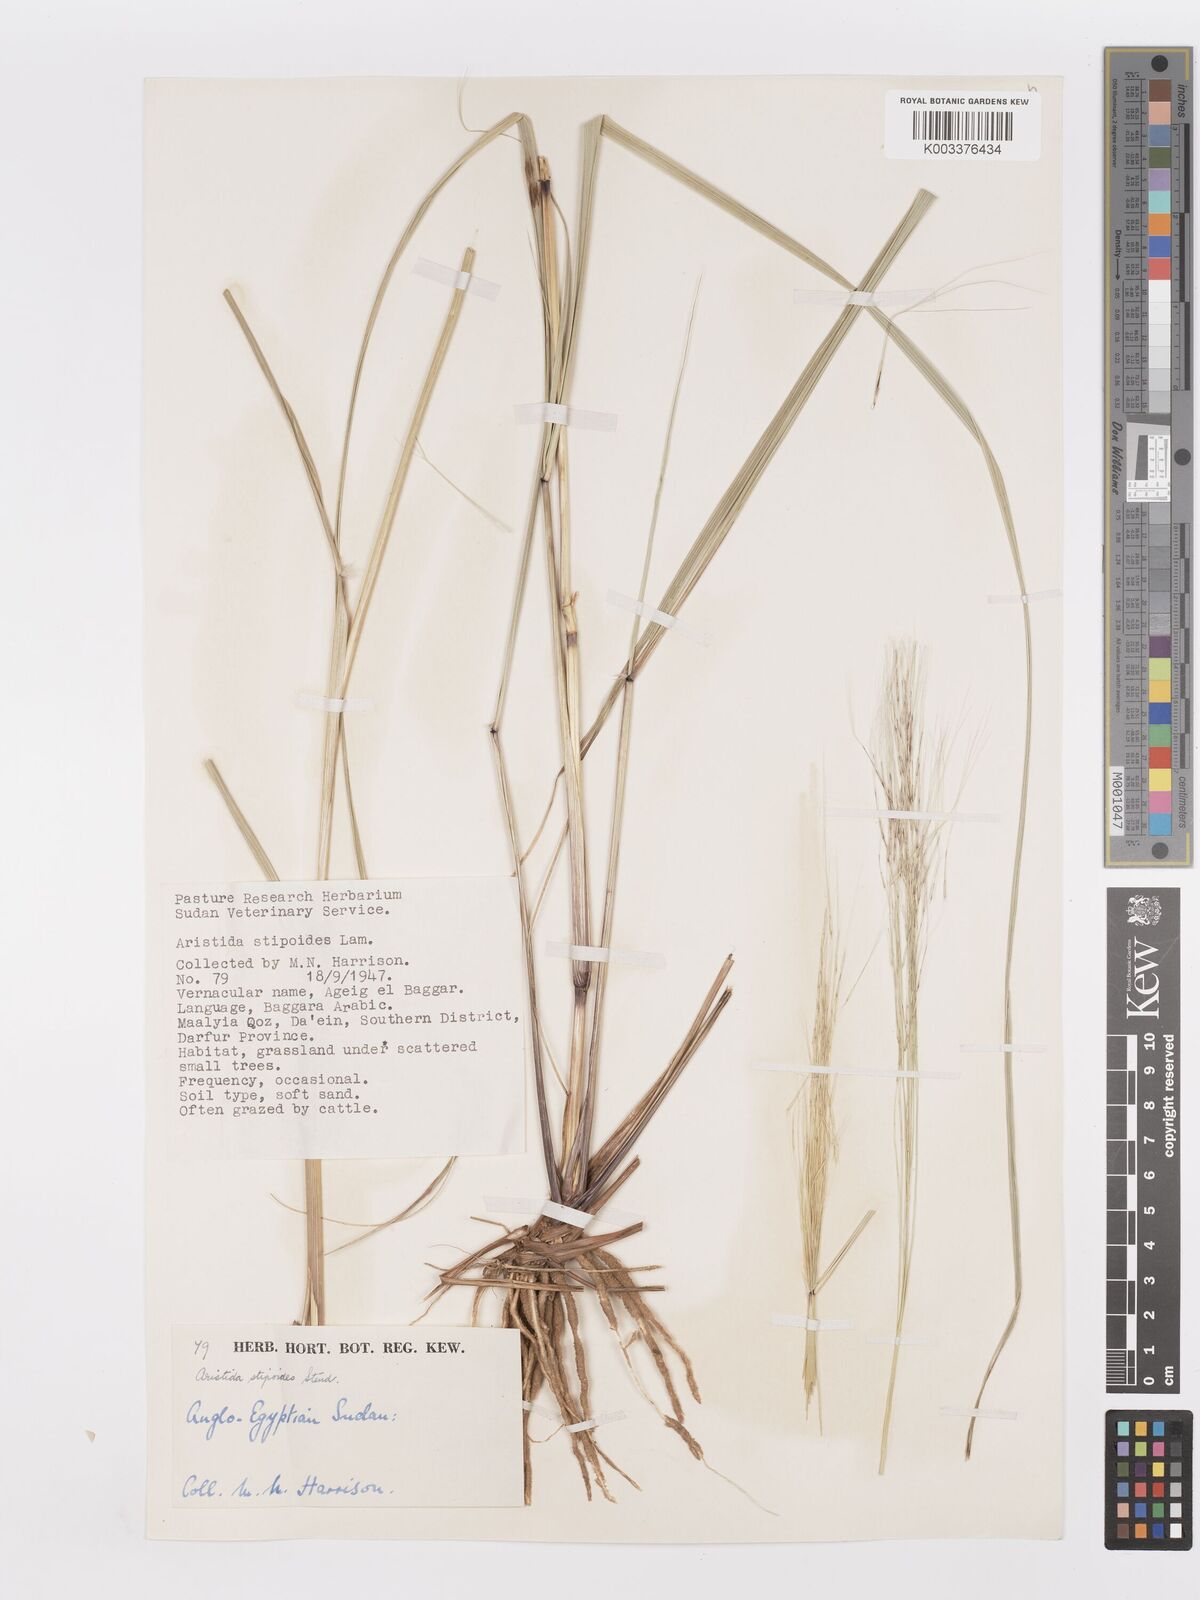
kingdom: Plantae
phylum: Tracheophyta
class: Liliopsida
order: Poales
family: Poaceae
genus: Aristida
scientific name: Aristida stipoides
